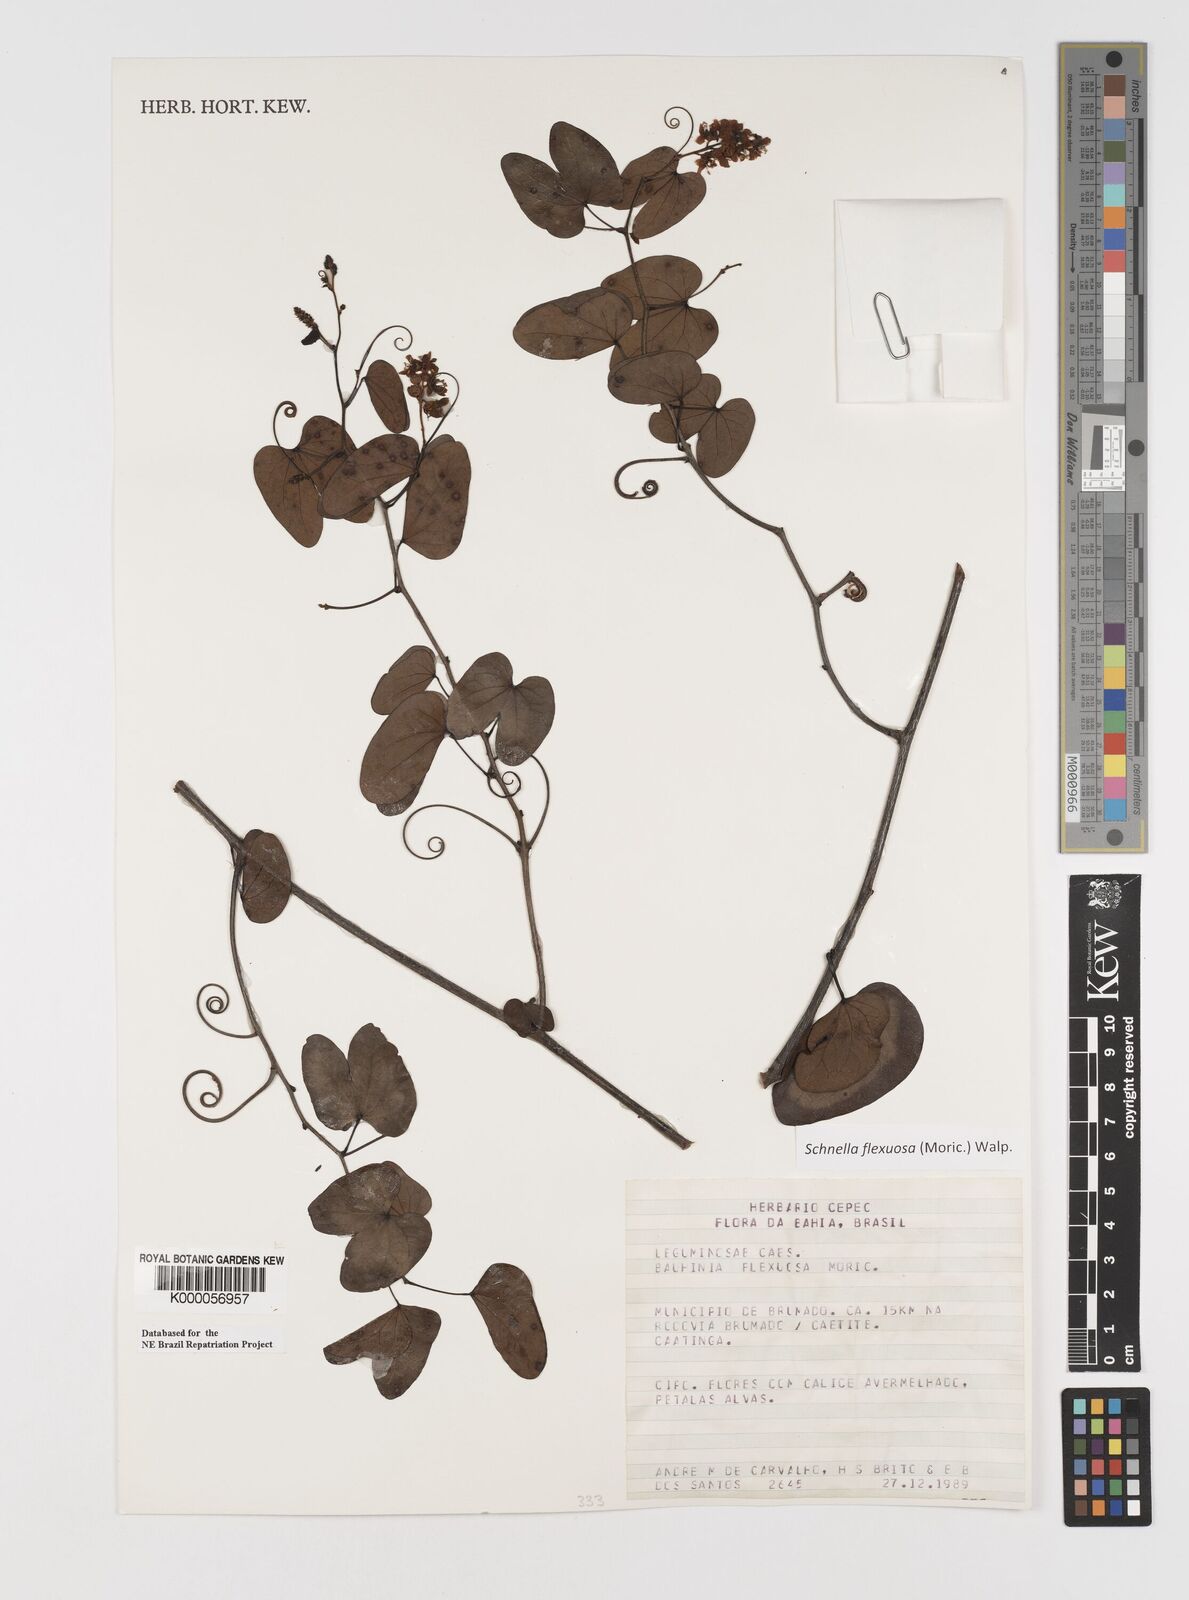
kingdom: Plantae
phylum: Tracheophyta
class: Magnoliopsida
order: Fabales
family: Fabaceae
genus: Schnella
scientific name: Schnella flexuosa
